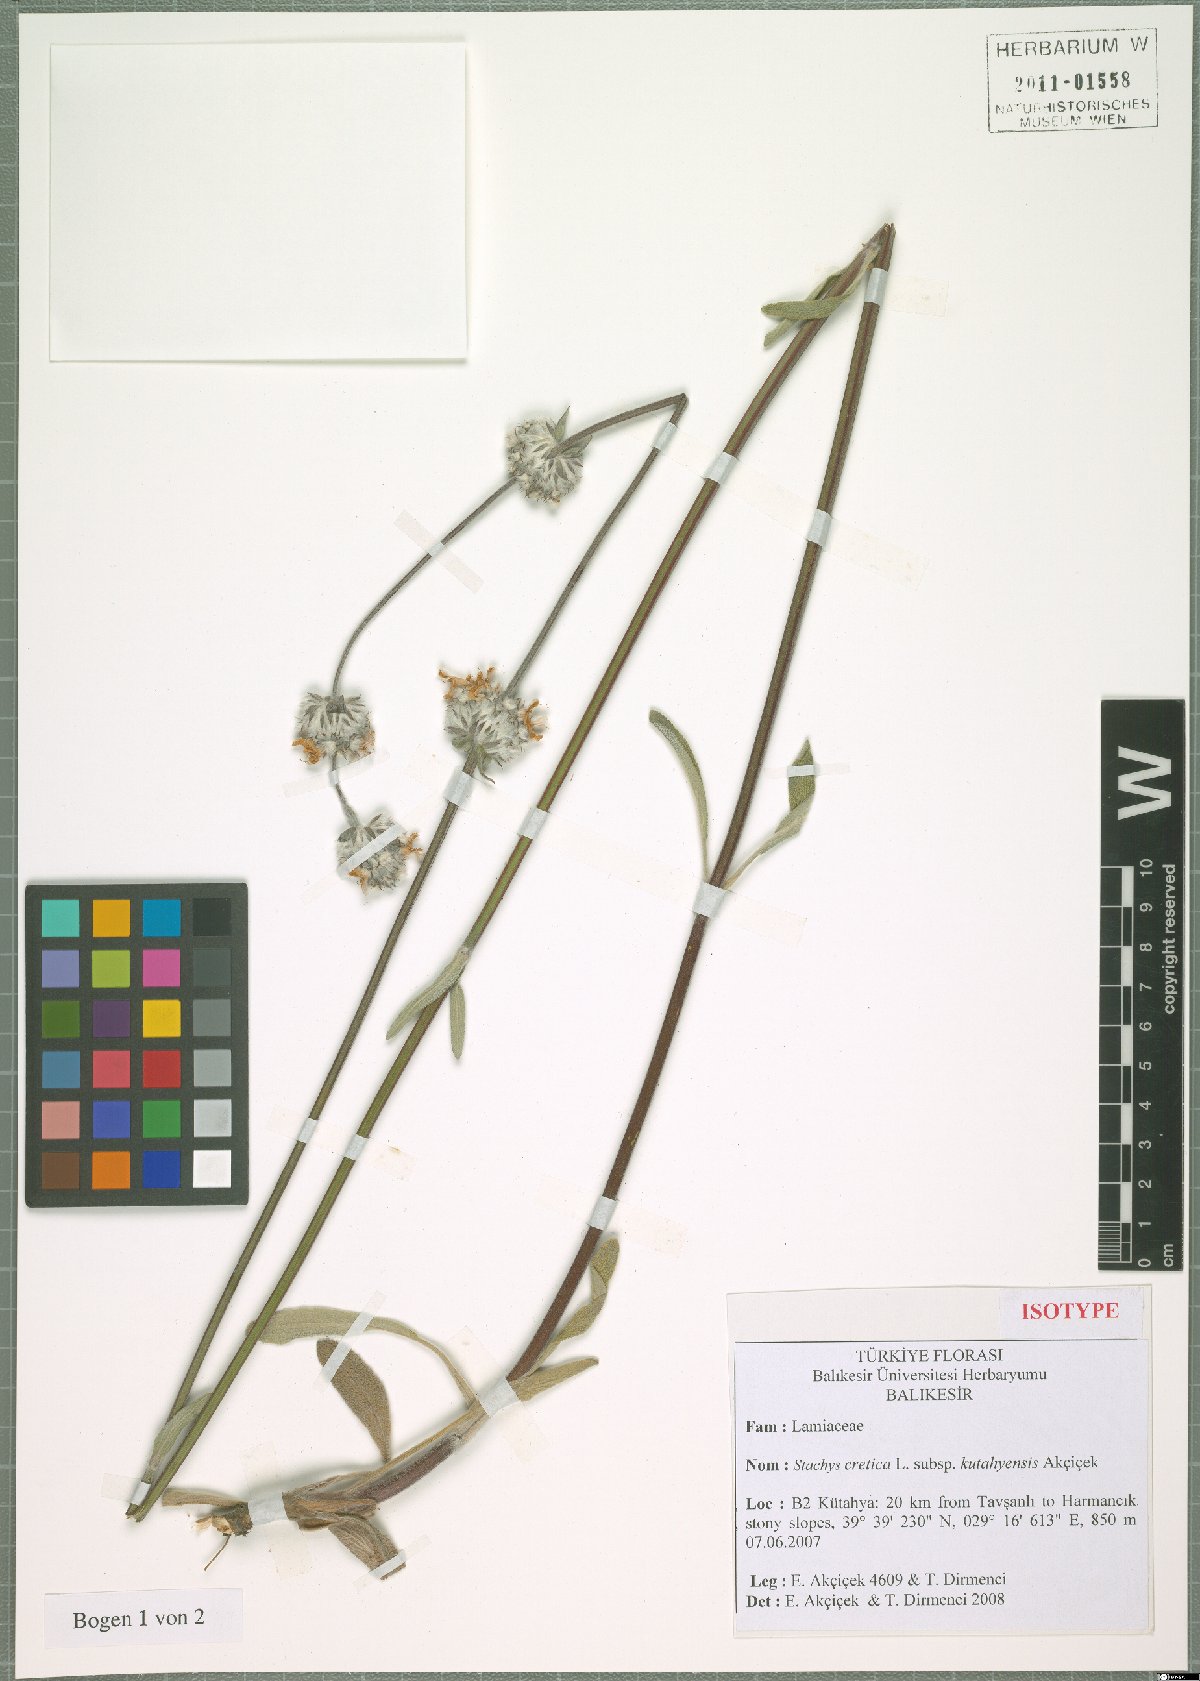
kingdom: Plantae
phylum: Tracheophyta
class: Magnoliopsida
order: Lamiales
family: Lamiaceae
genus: Stachys
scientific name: Stachys cretica
